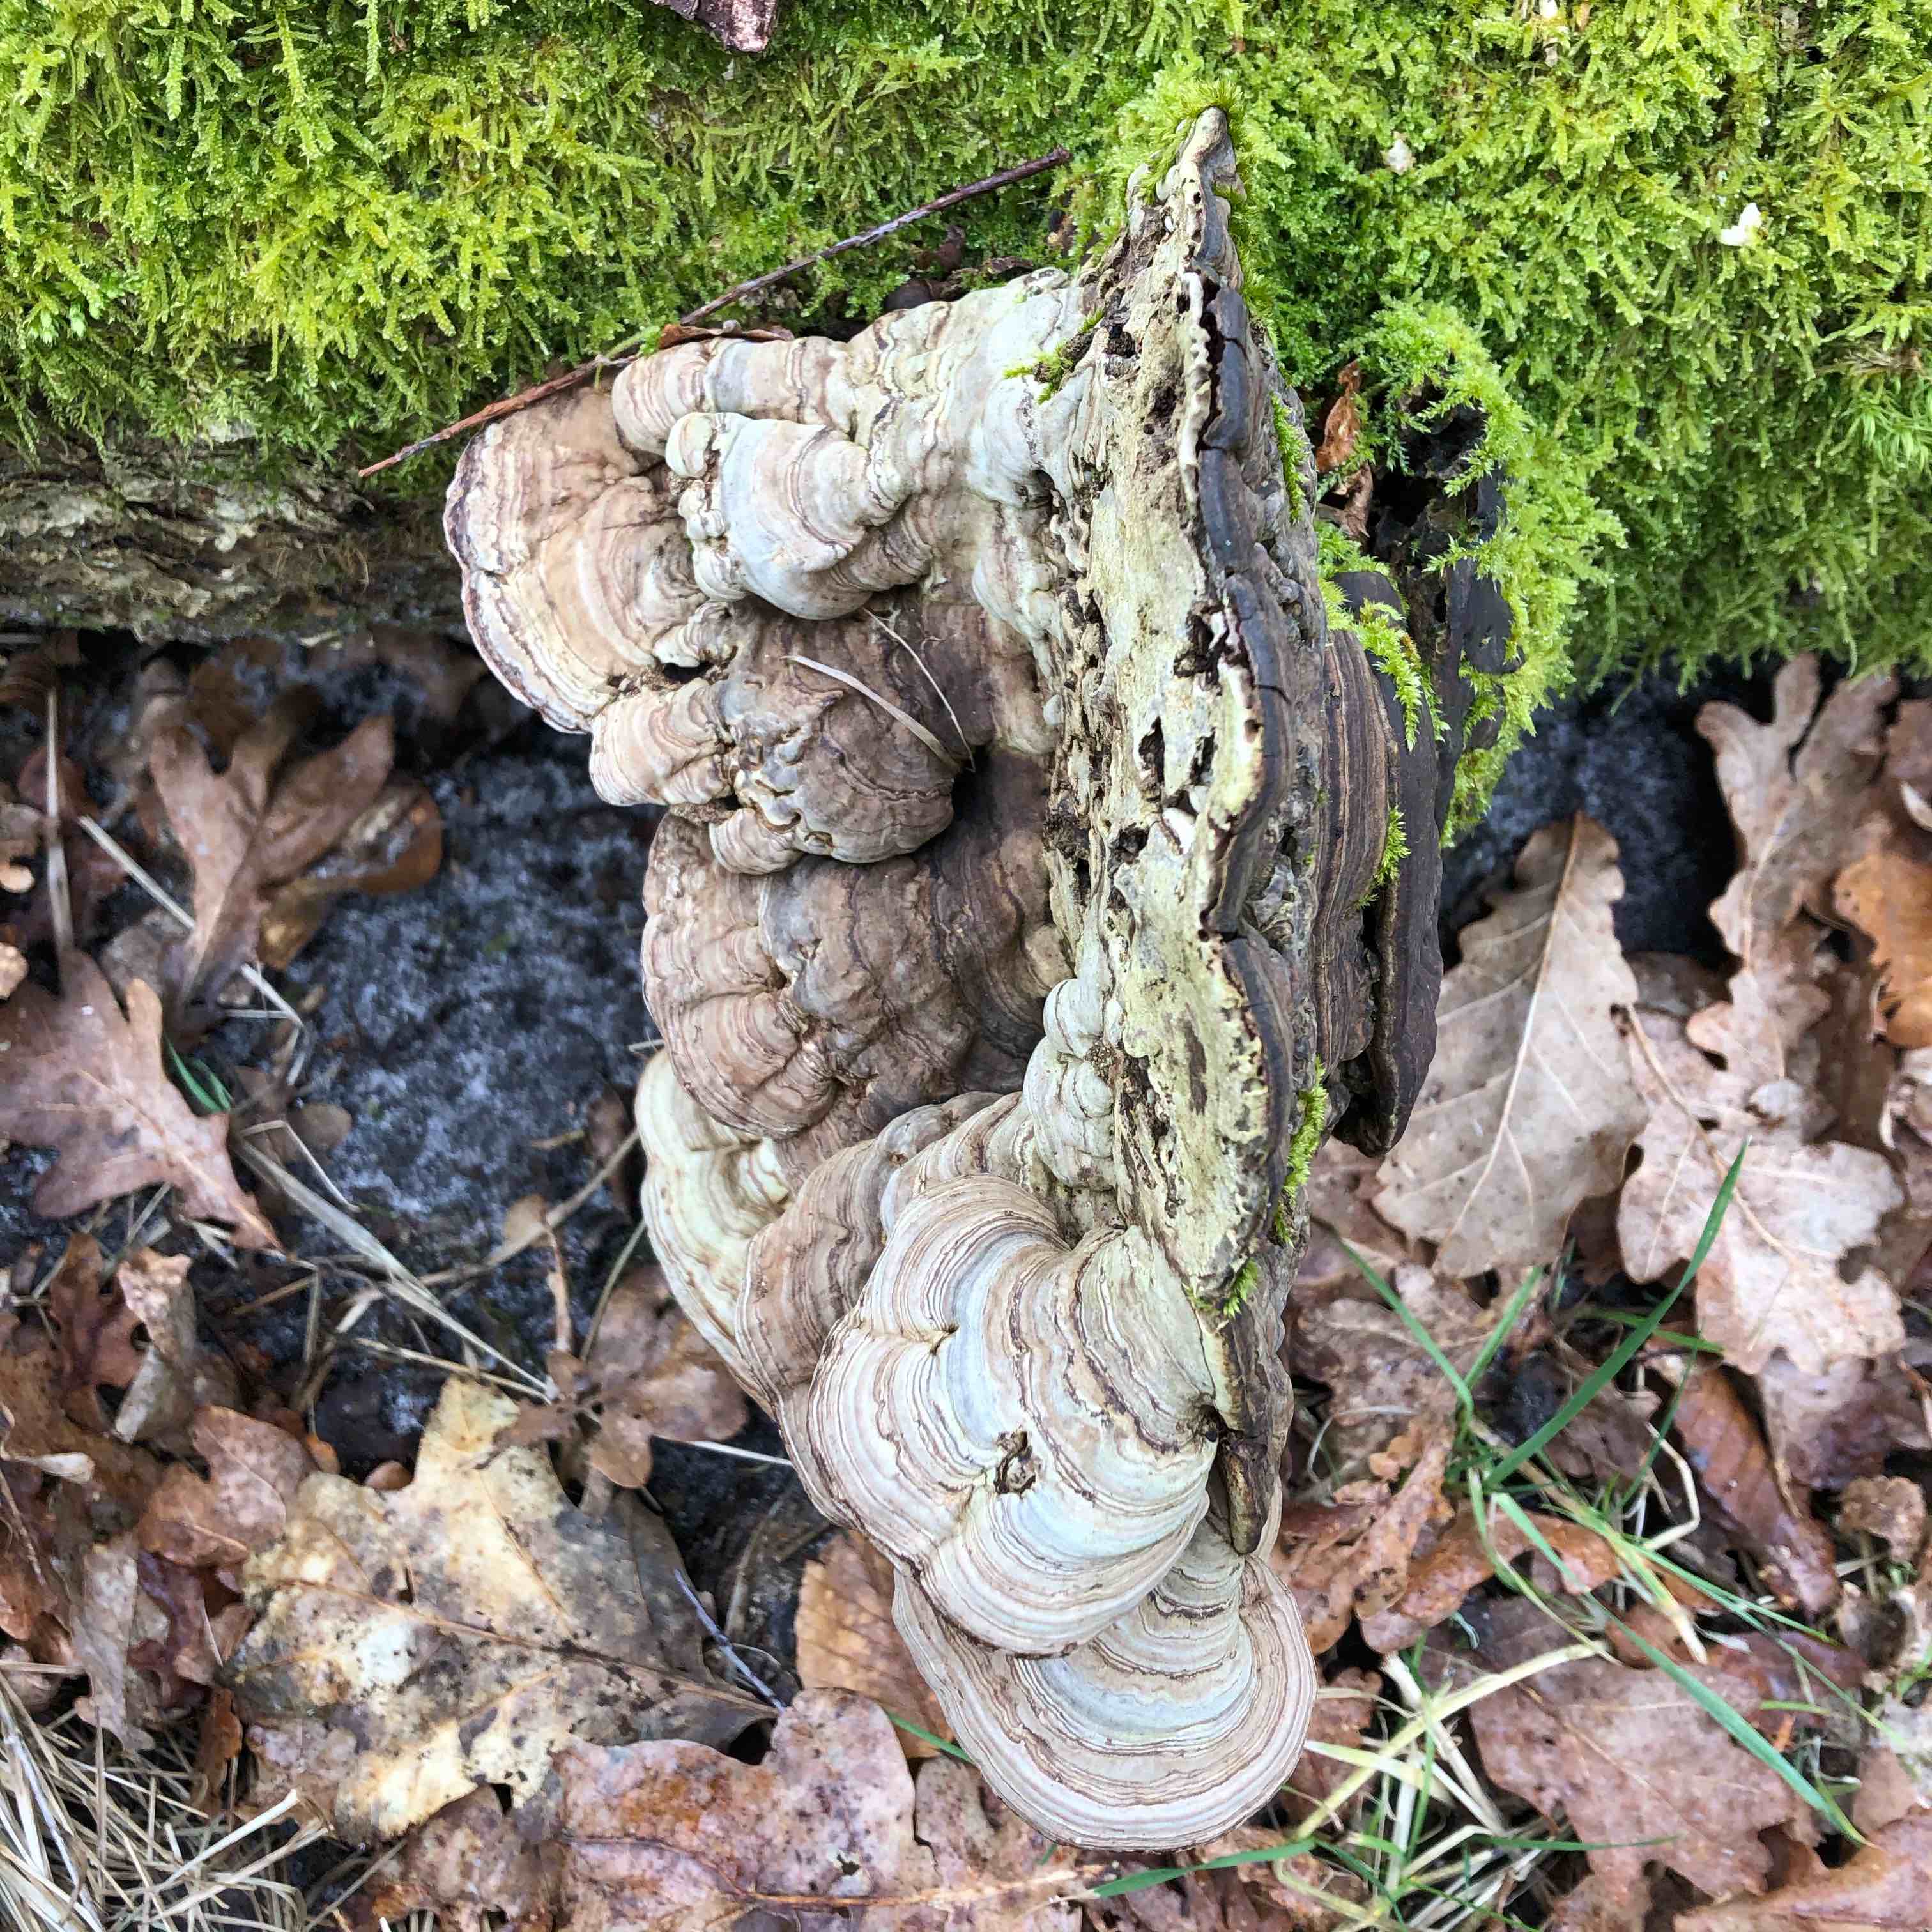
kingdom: Fungi
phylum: Basidiomycota
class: Agaricomycetes
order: Polyporales
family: Polyporaceae
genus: Ganoderma
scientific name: Ganoderma applanatum
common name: flad lakporesvamp
